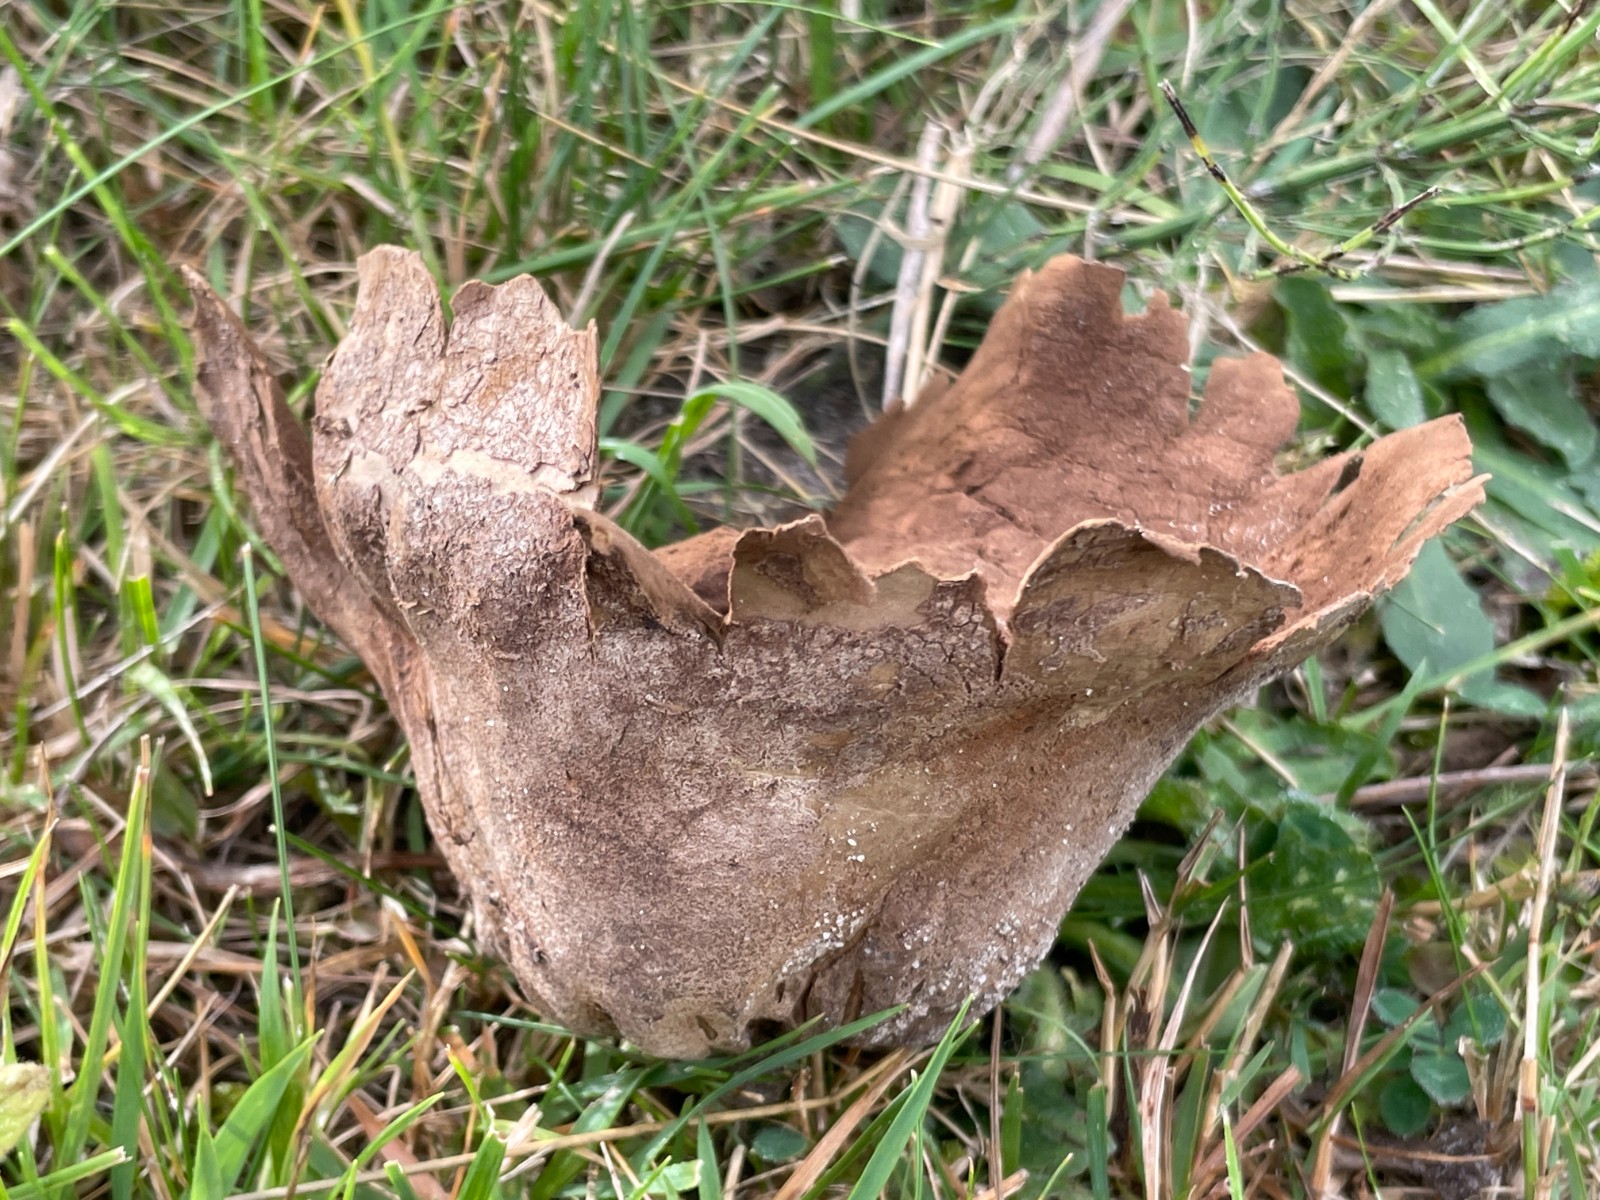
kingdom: Fungi
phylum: Basidiomycota
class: Agaricomycetes
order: Agaricales
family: Lycoperdaceae
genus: Bovistella
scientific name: Bovistella utriformis
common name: skællet støvbold
